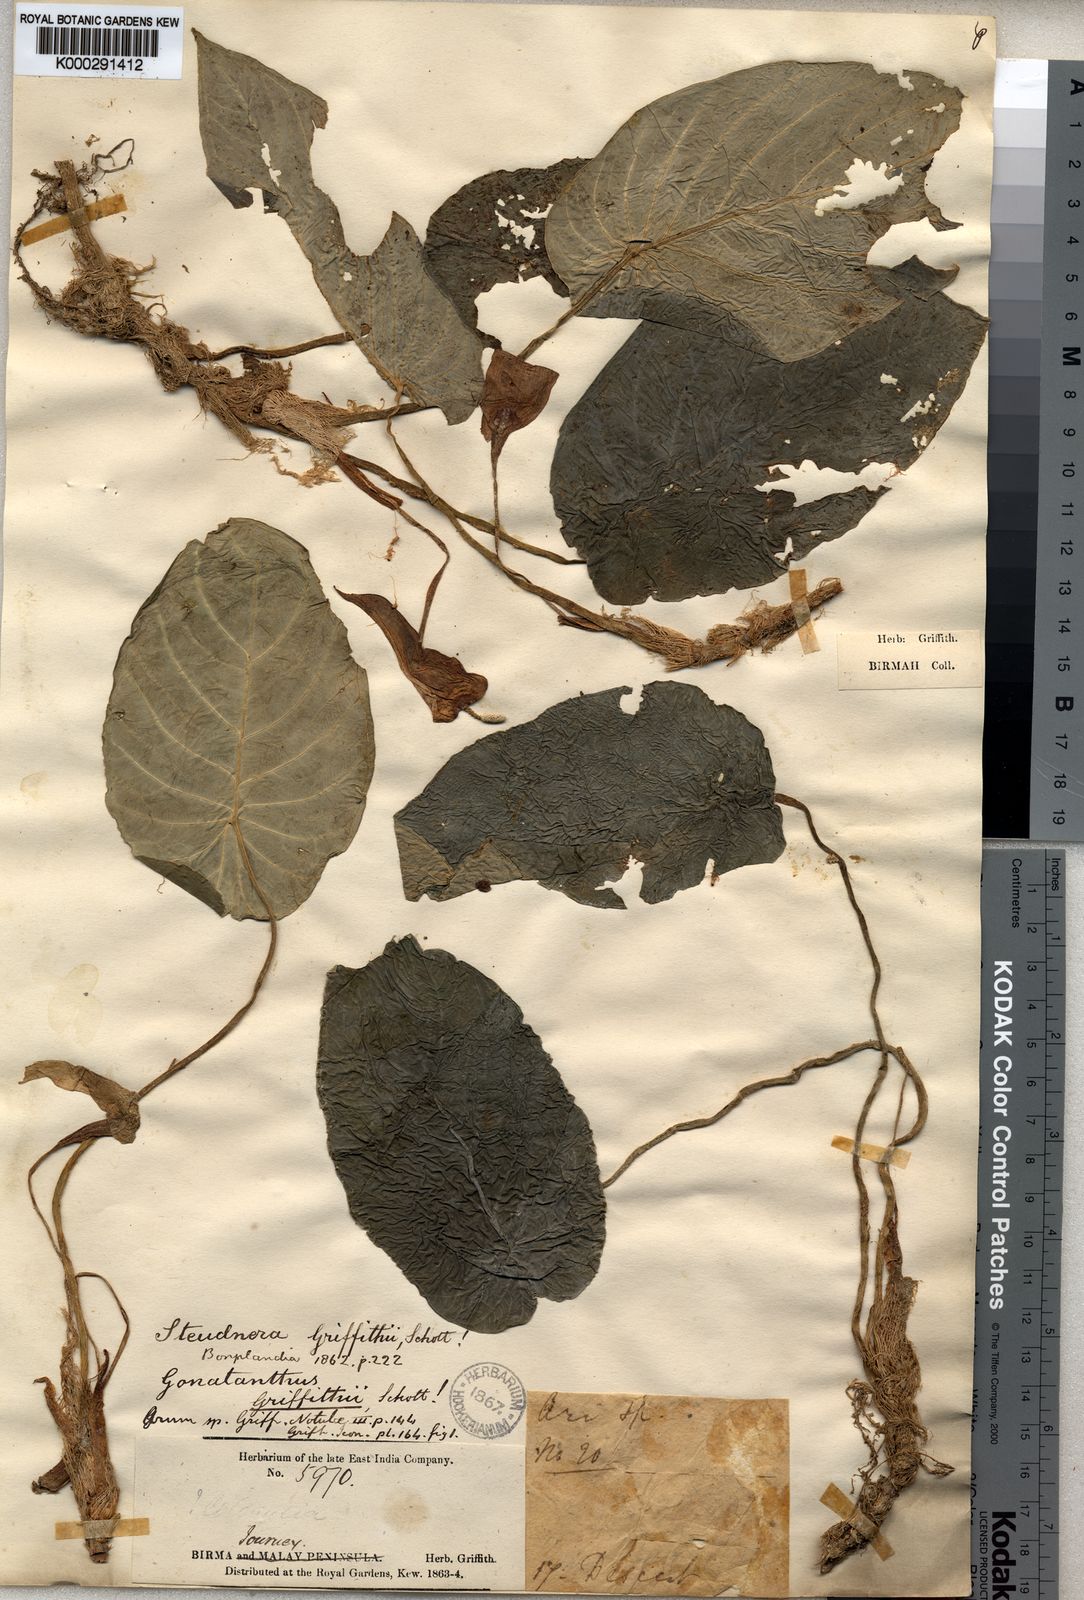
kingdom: Plantae
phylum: Tracheophyta
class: Liliopsida
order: Alismatales
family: Araceae
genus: Steudnera
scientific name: Steudnera griffithii
